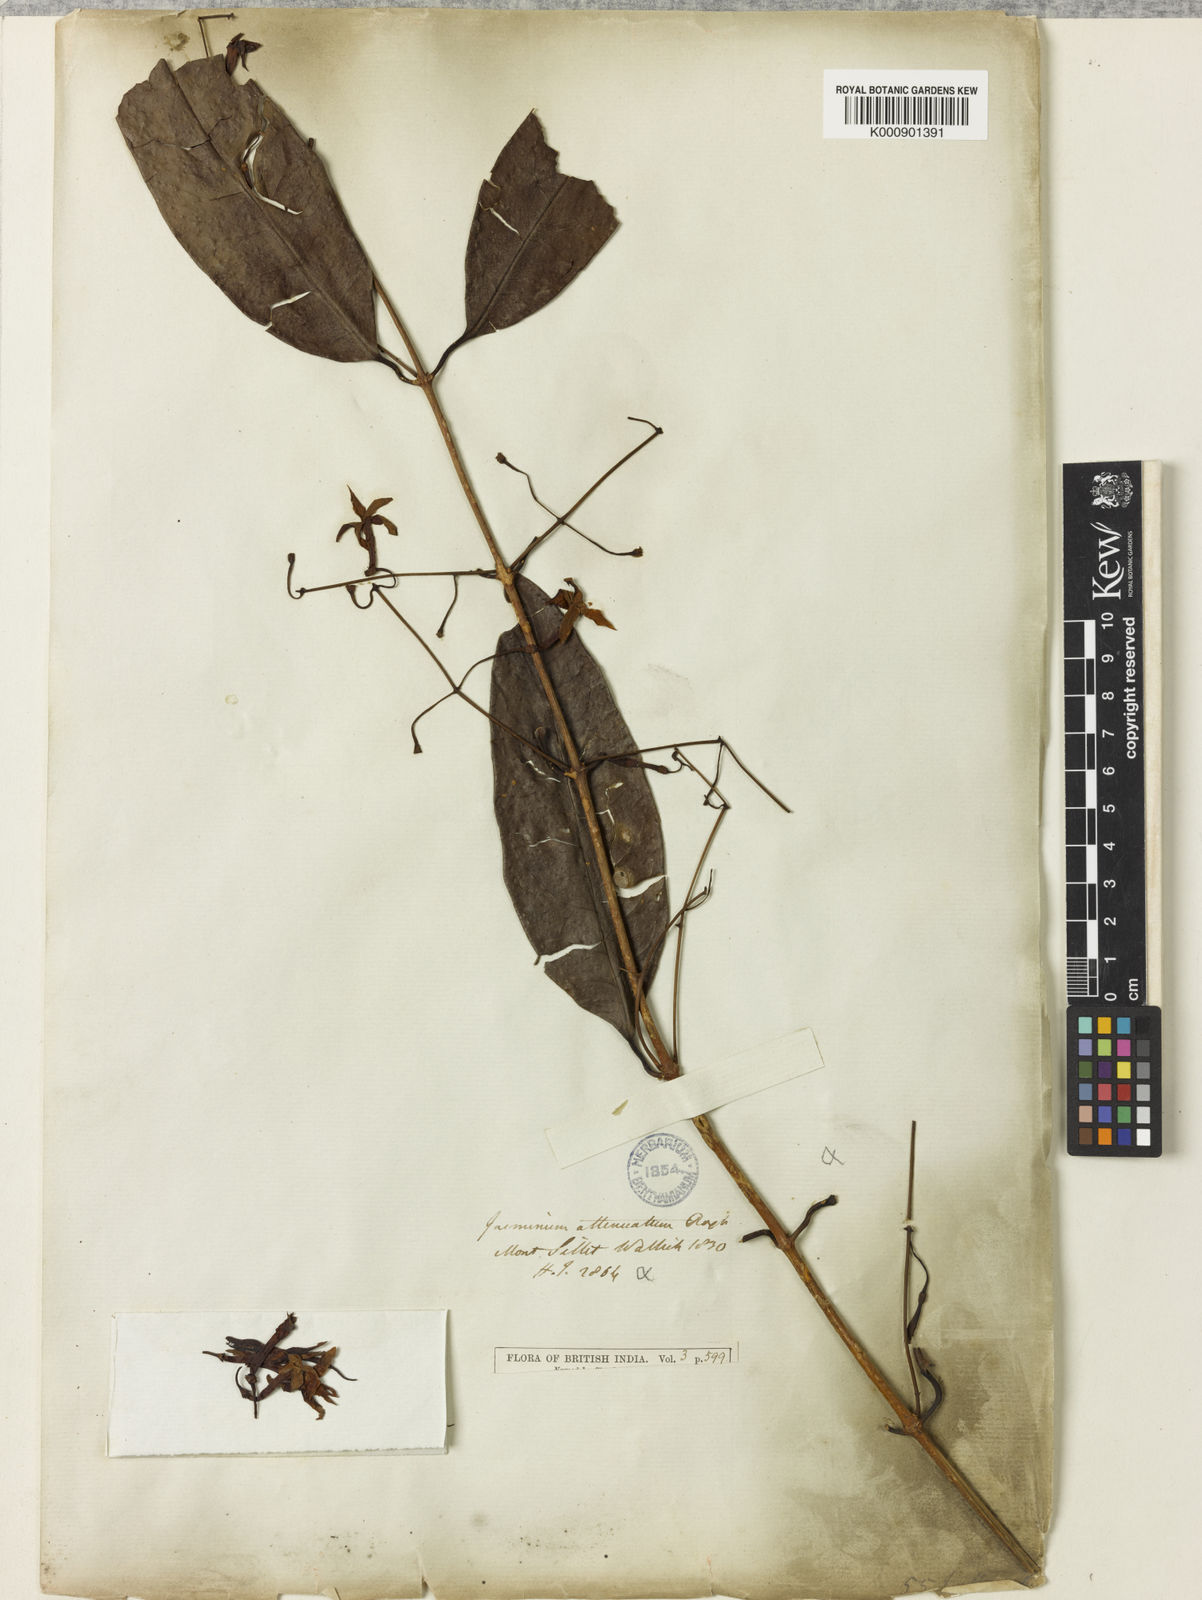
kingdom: Plantae
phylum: Tracheophyta
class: Magnoliopsida
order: Lamiales
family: Oleaceae
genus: Jasminum
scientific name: Jasminum
